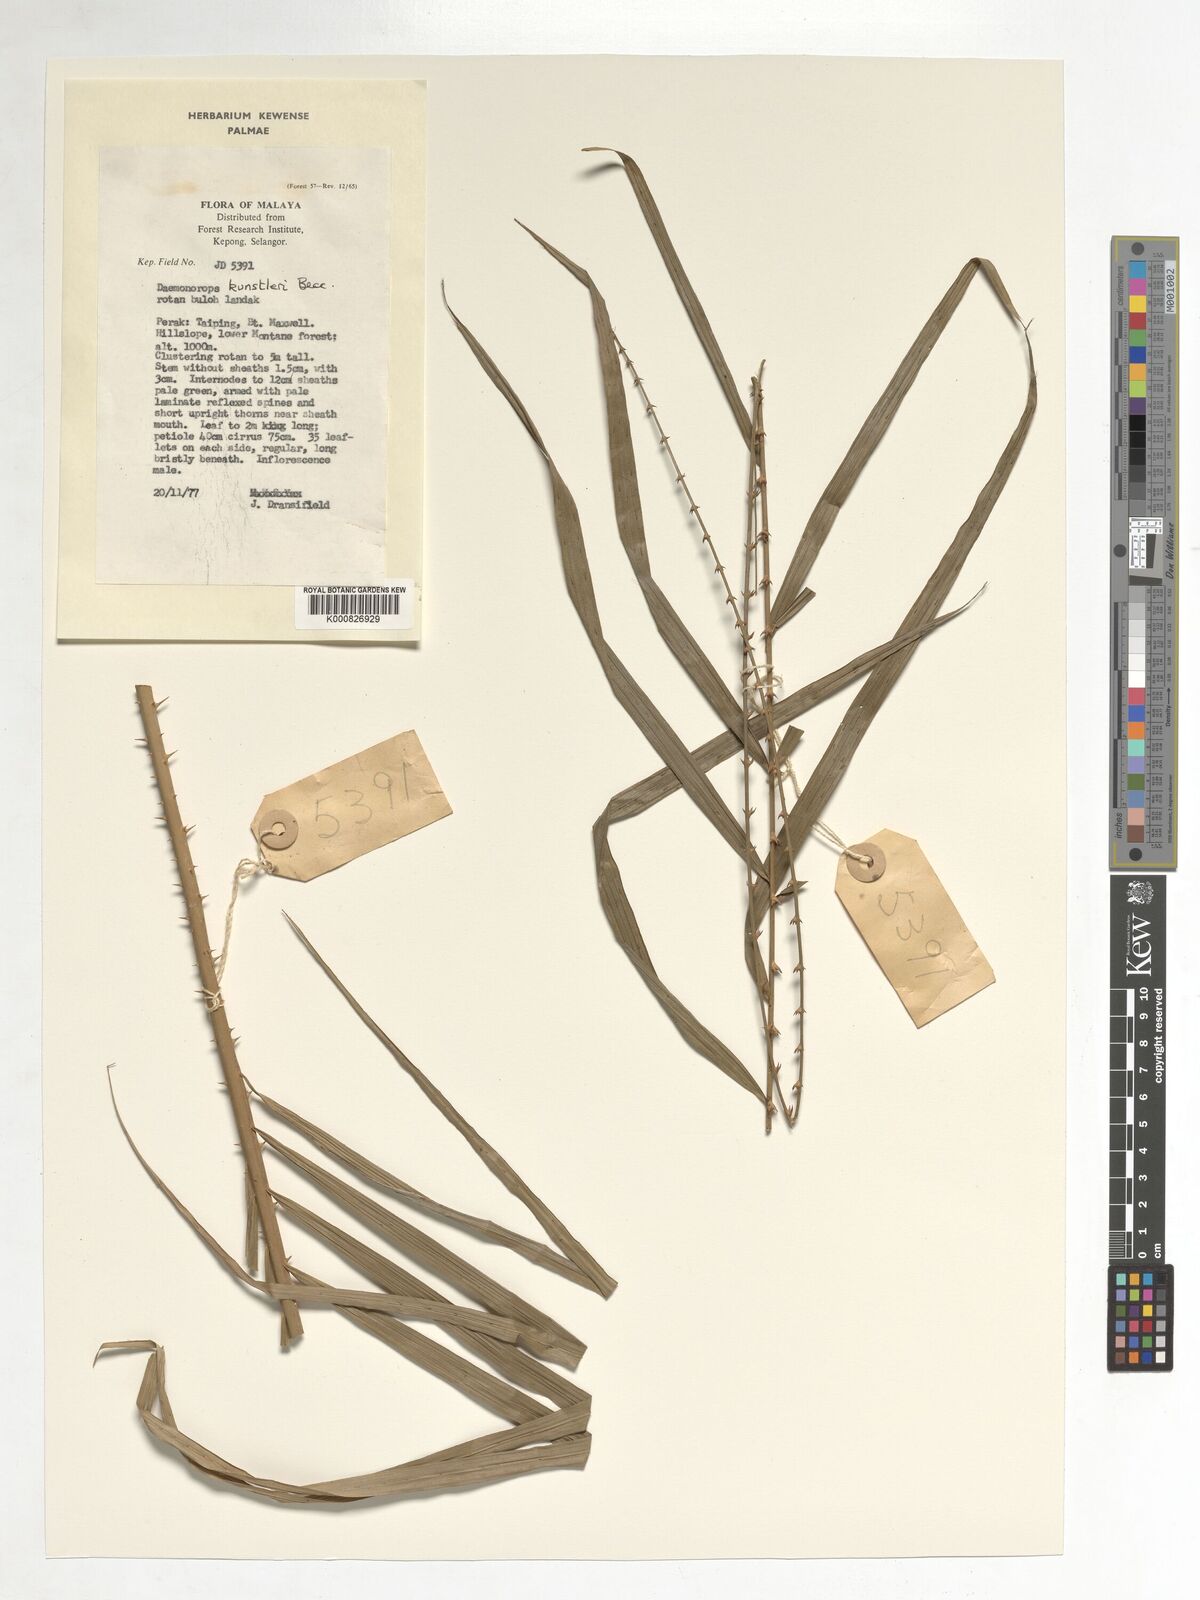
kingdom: Plantae
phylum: Tracheophyta
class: Liliopsida
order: Arecales
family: Arecaceae
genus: Calamus
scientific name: Calamus kunstleri
